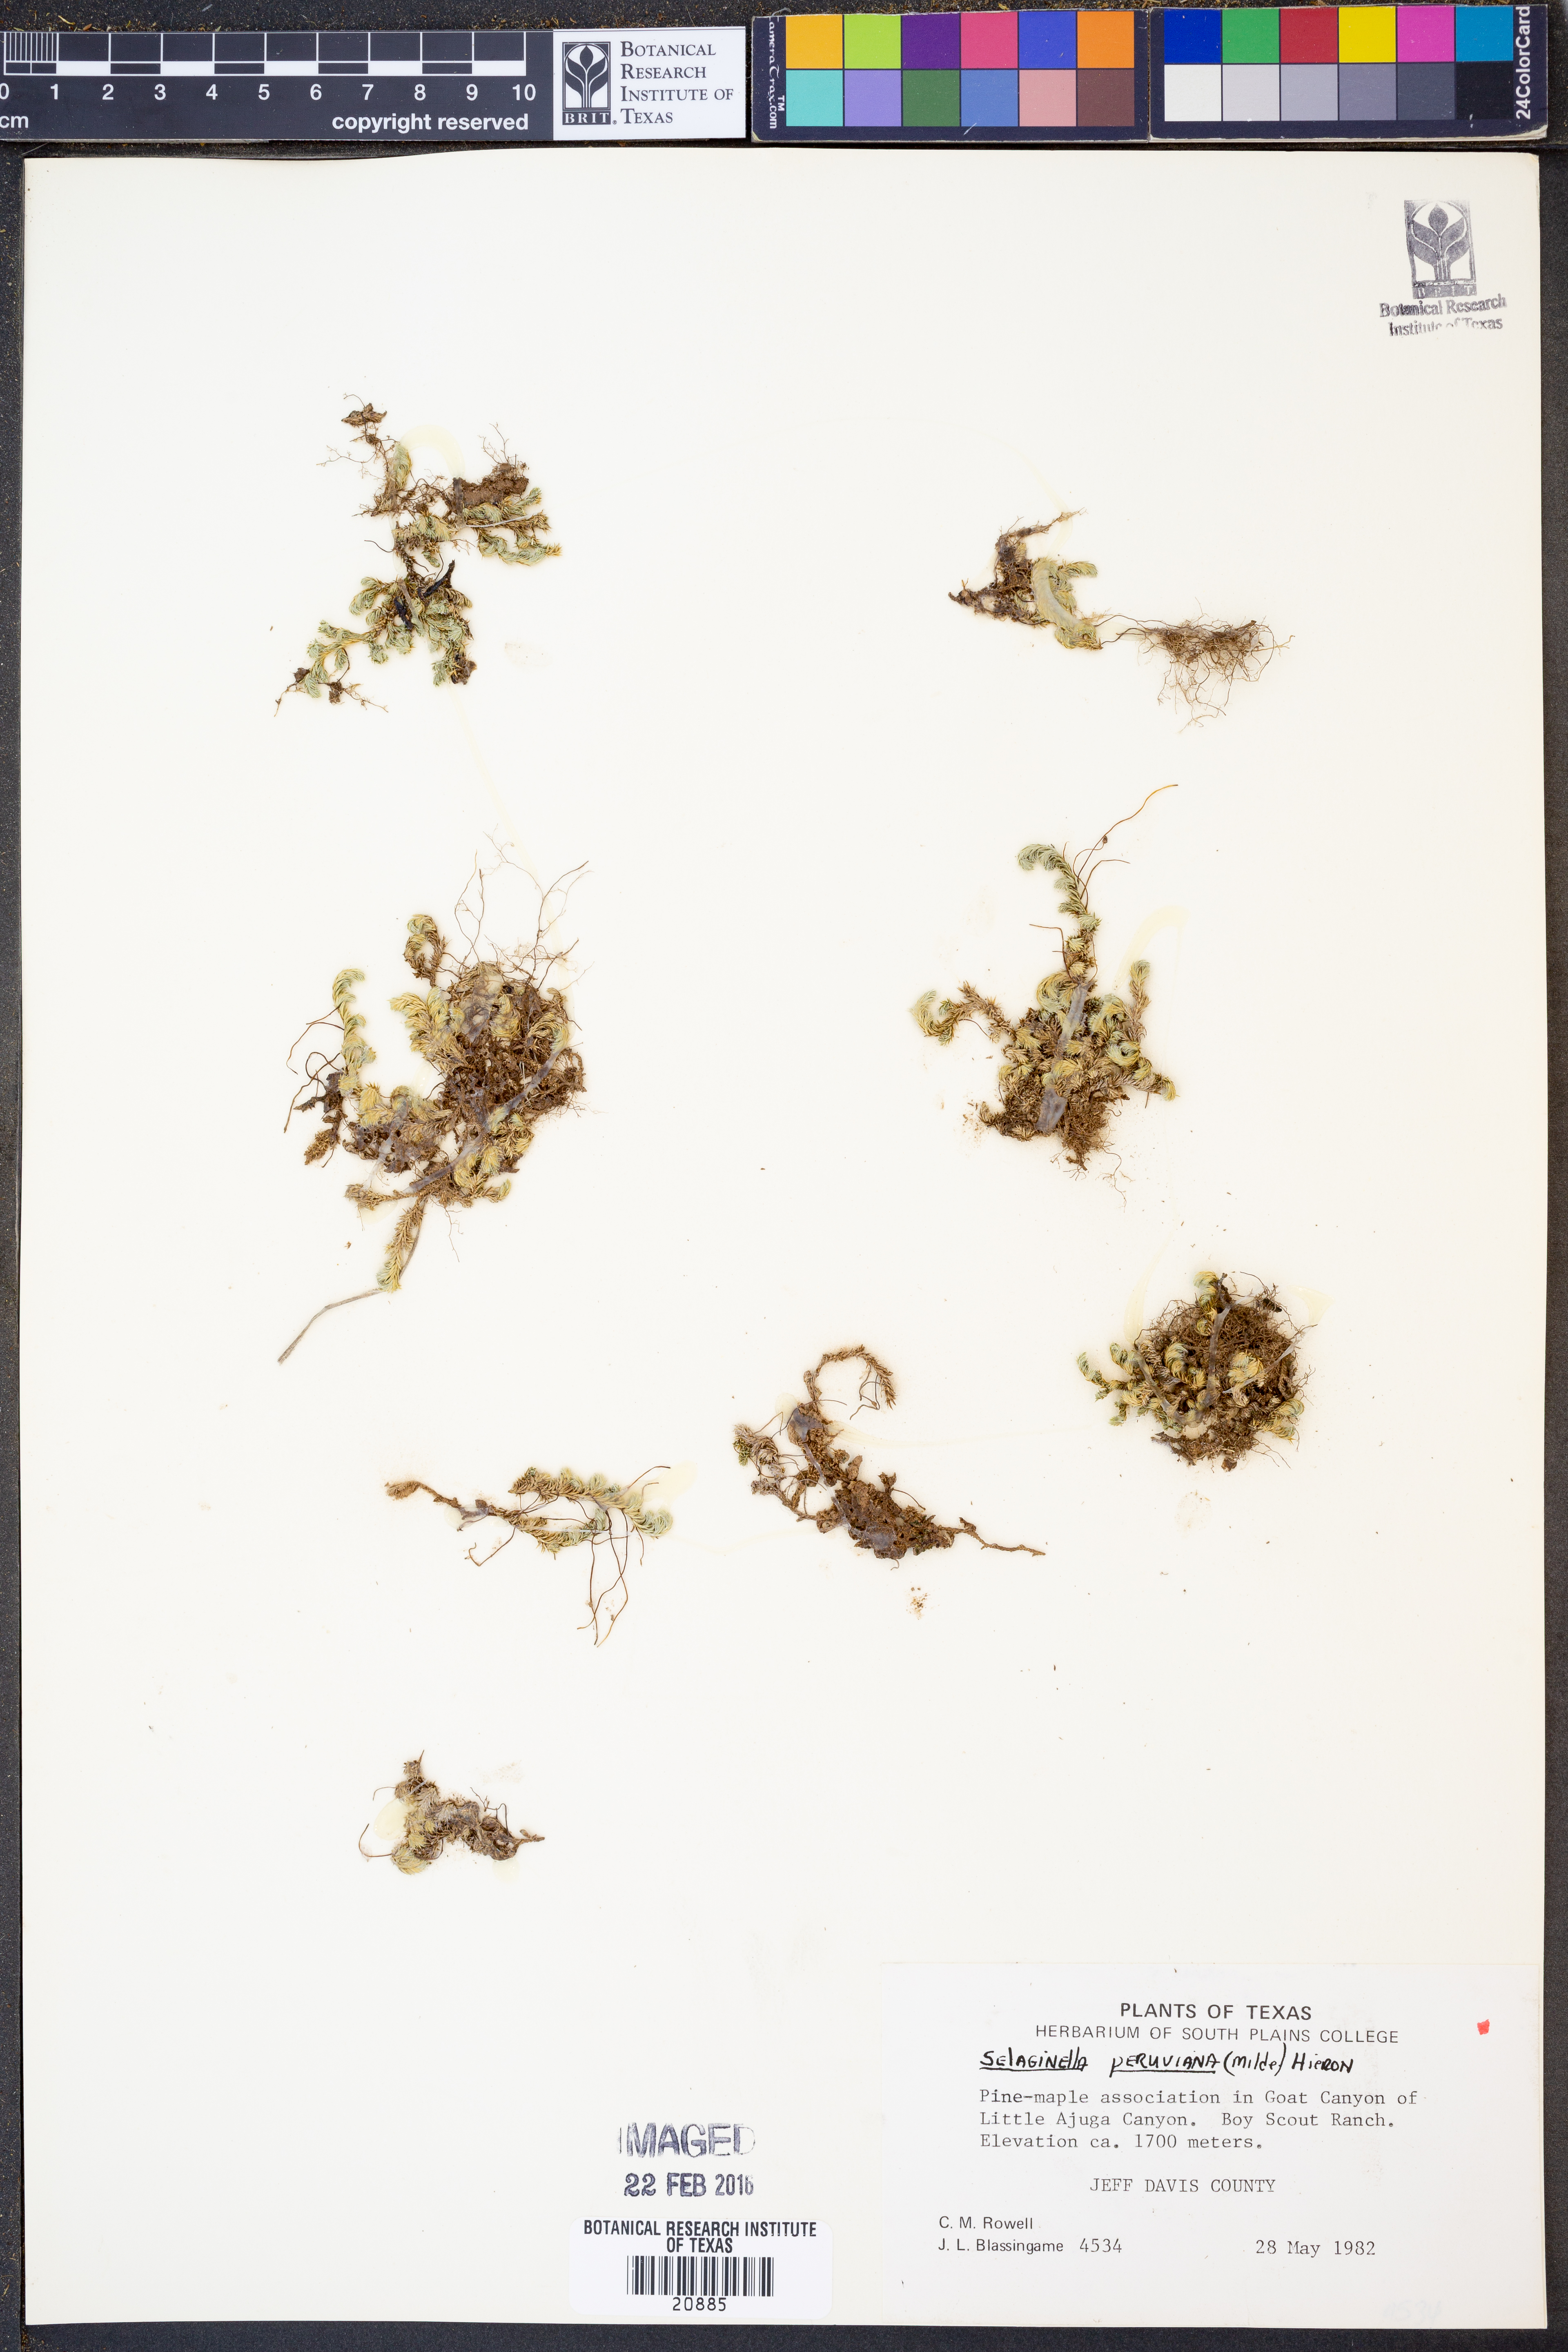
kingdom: Plantae
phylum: Tracheophyta
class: Lycopodiopsida
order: Selaginellales
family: Selaginellaceae
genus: Selaginella
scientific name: Selaginella peruviana
